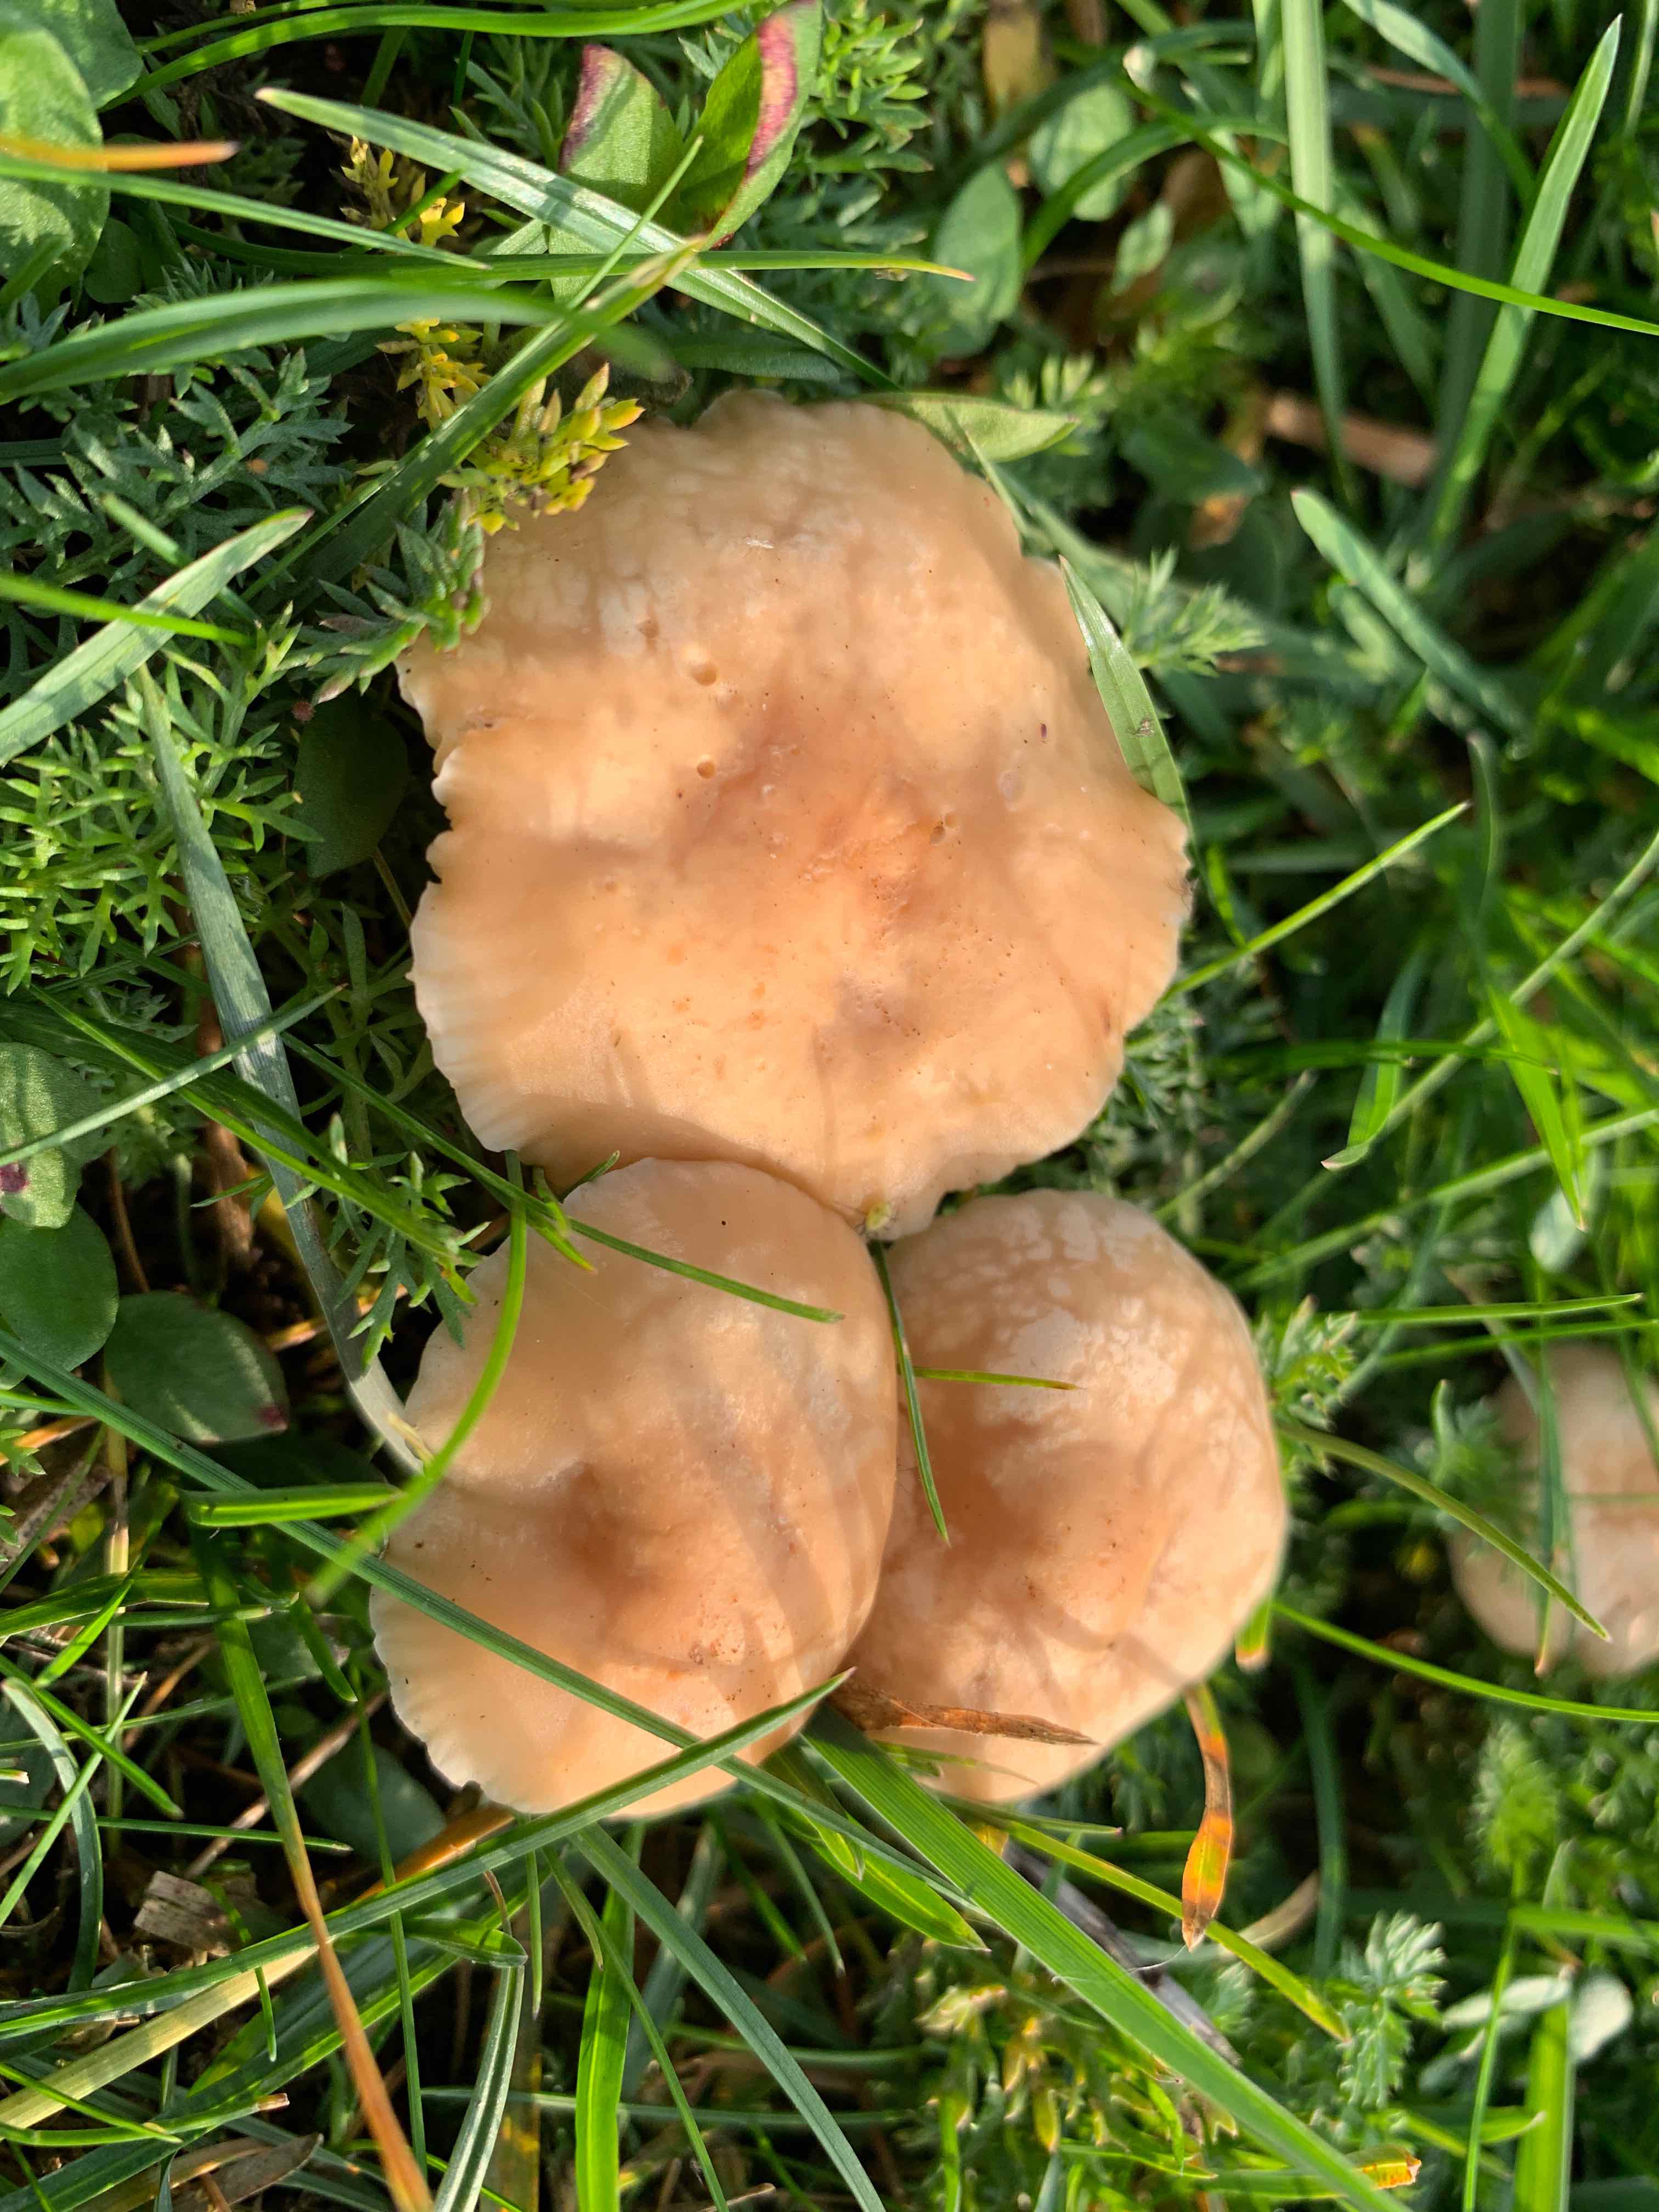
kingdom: Fungi
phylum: Basidiomycota
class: Agaricomycetes
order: Agaricales
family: Marasmiaceae
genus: Marasmius
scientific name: Marasmius oreades
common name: elledans-bruskhat
